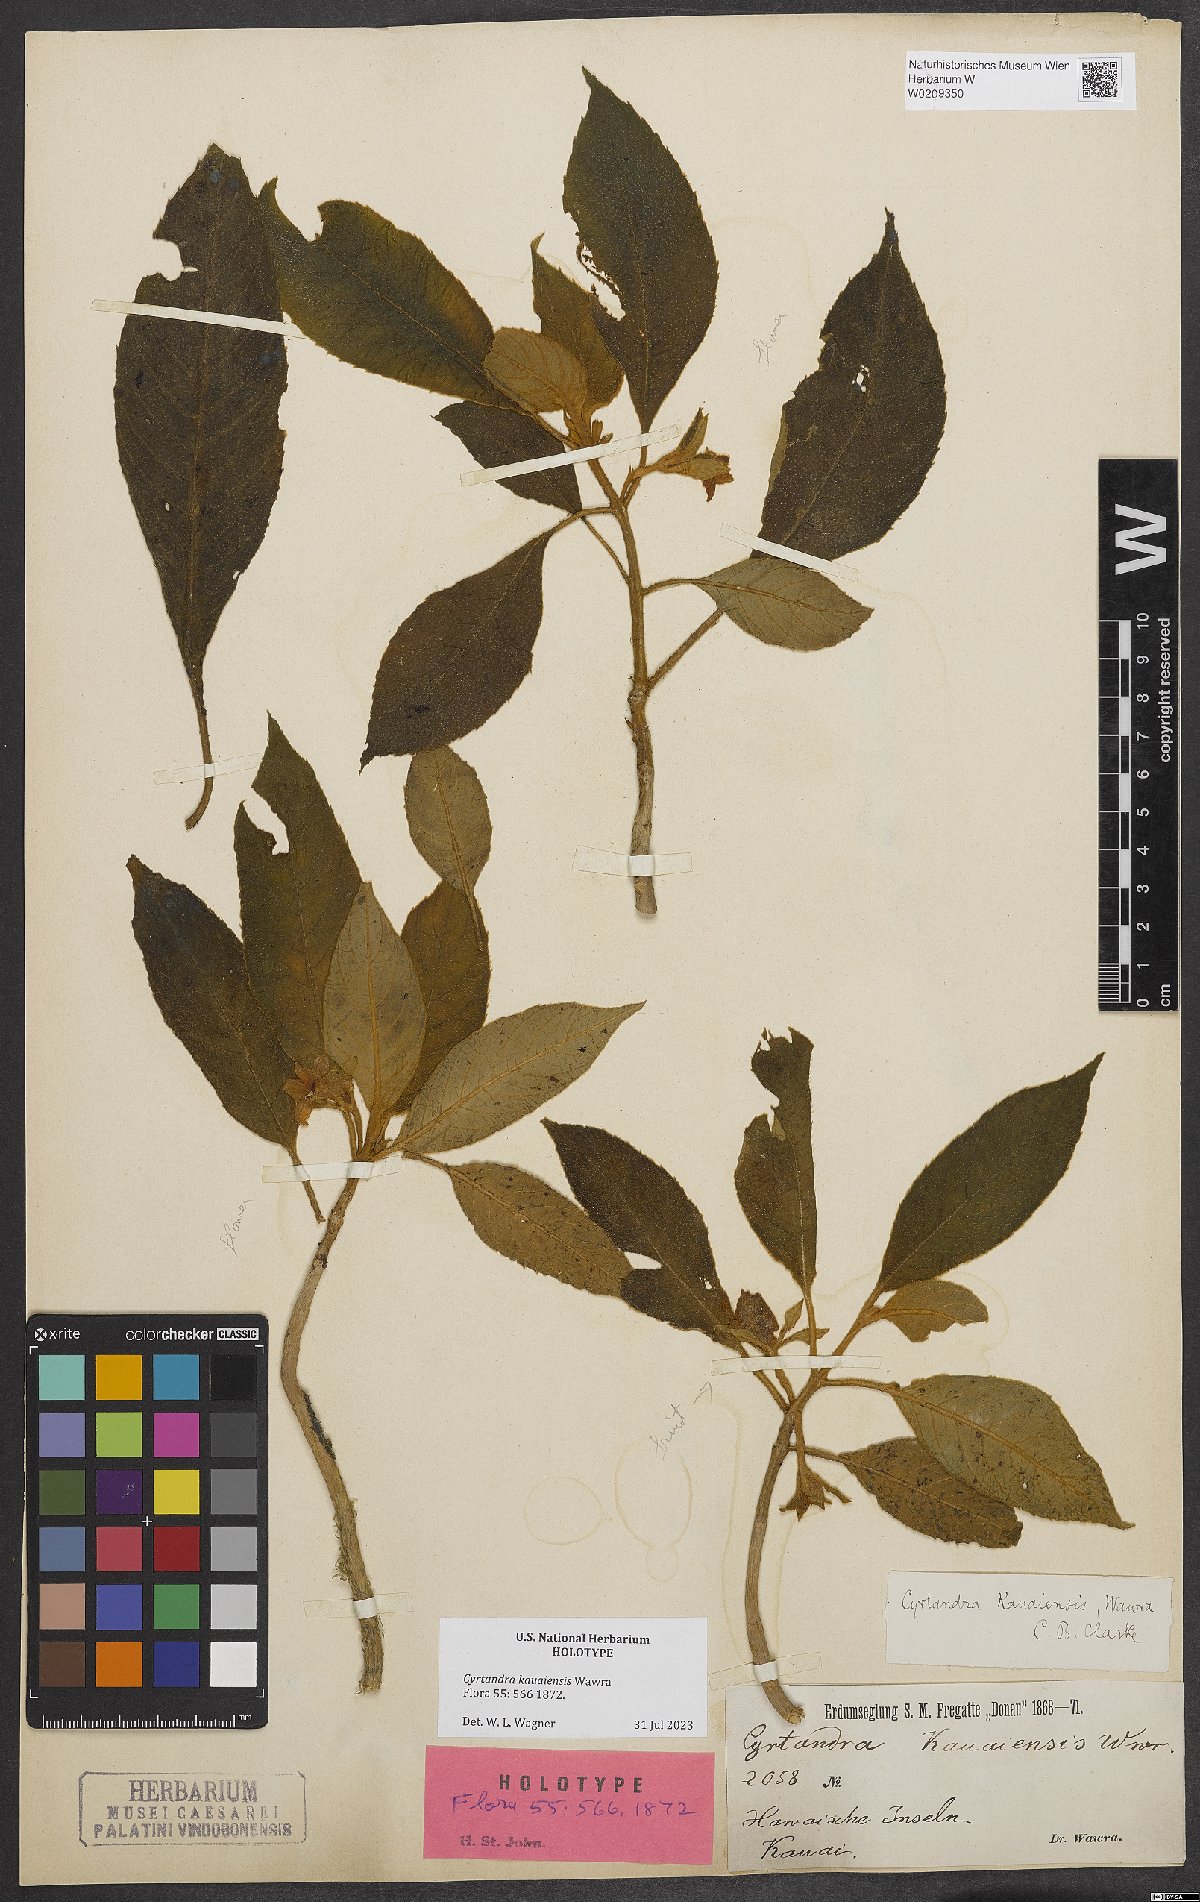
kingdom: Plantae
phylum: Tracheophyta
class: Magnoliopsida
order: Lamiales
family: Gesneriaceae
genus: Cyrtandra
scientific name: Cyrtandra kauaiensis
